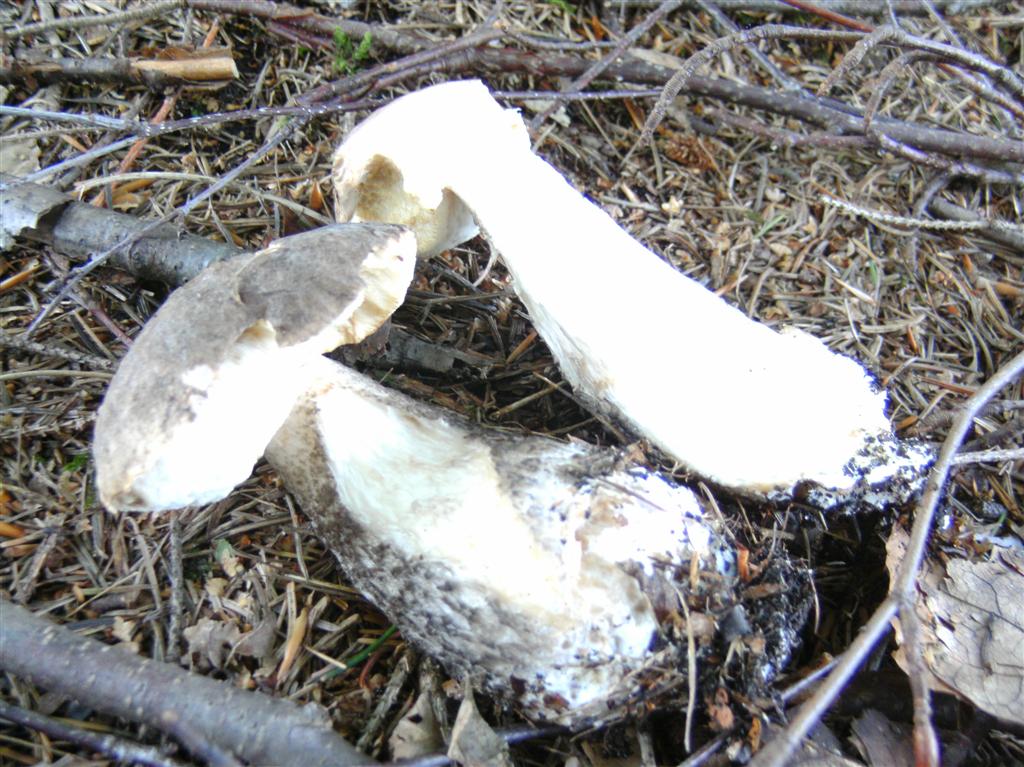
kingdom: Fungi
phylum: Basidiomycota
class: Agaricomycetes
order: Boletales
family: Boletaceae
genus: Leccinum
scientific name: Leccinum variicolor
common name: flammet skælrørhat
